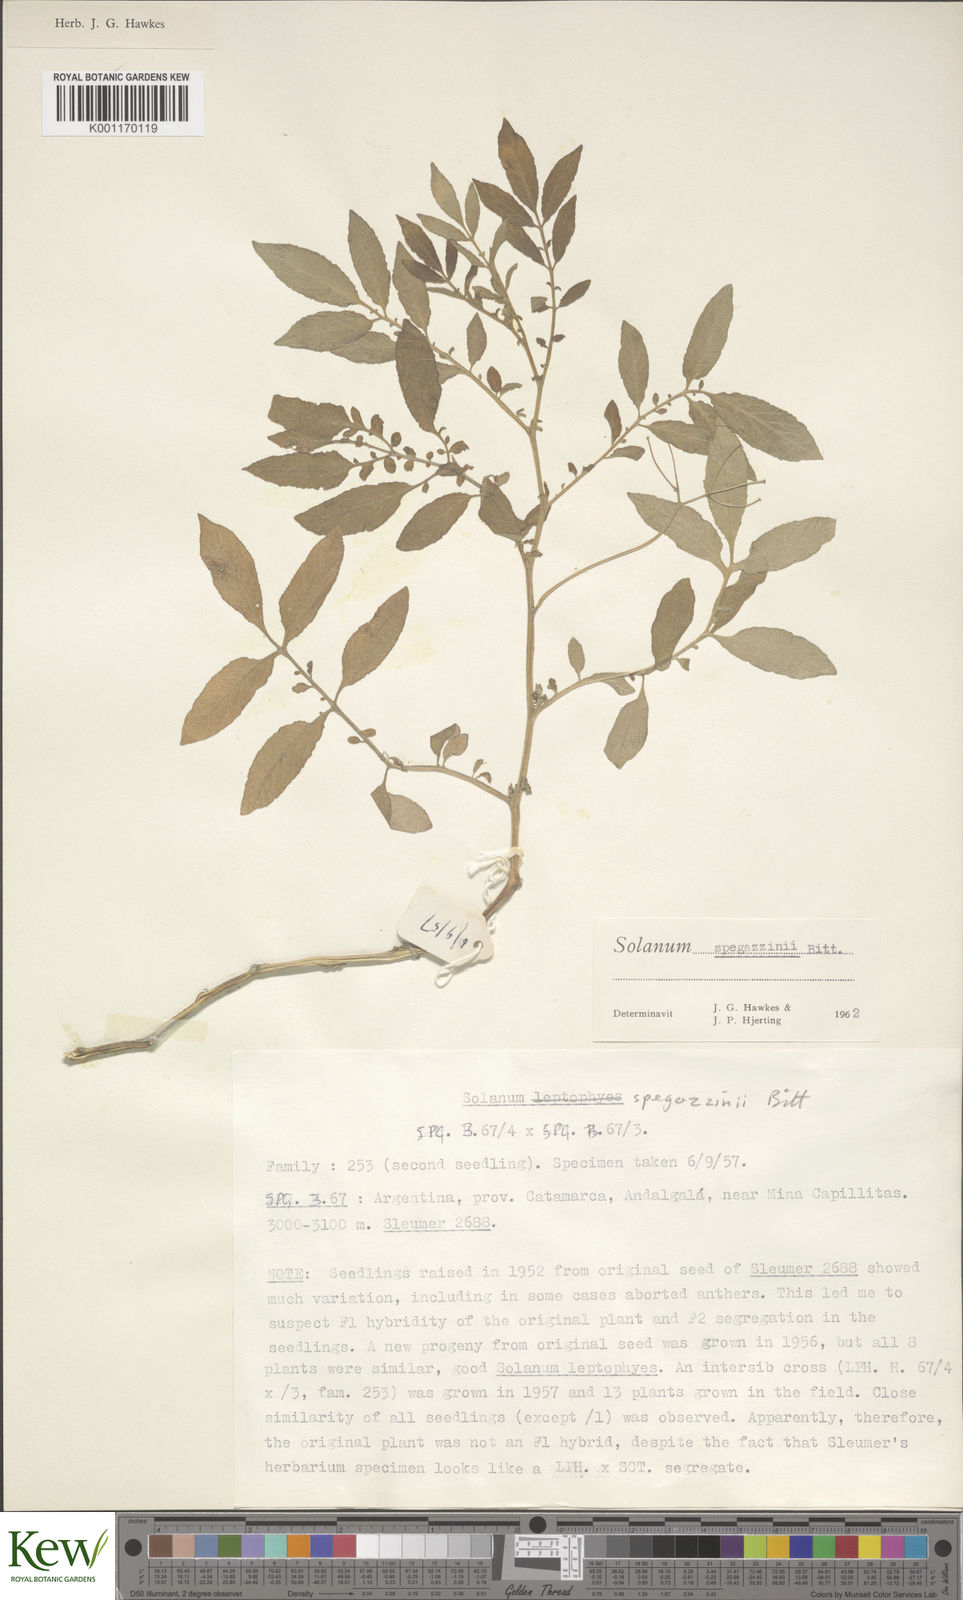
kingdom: Plantae
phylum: Tracheophyta
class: Magnoliopsida
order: Solanales
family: Solanaceae
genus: Solanum
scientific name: Solanum brevicaule
